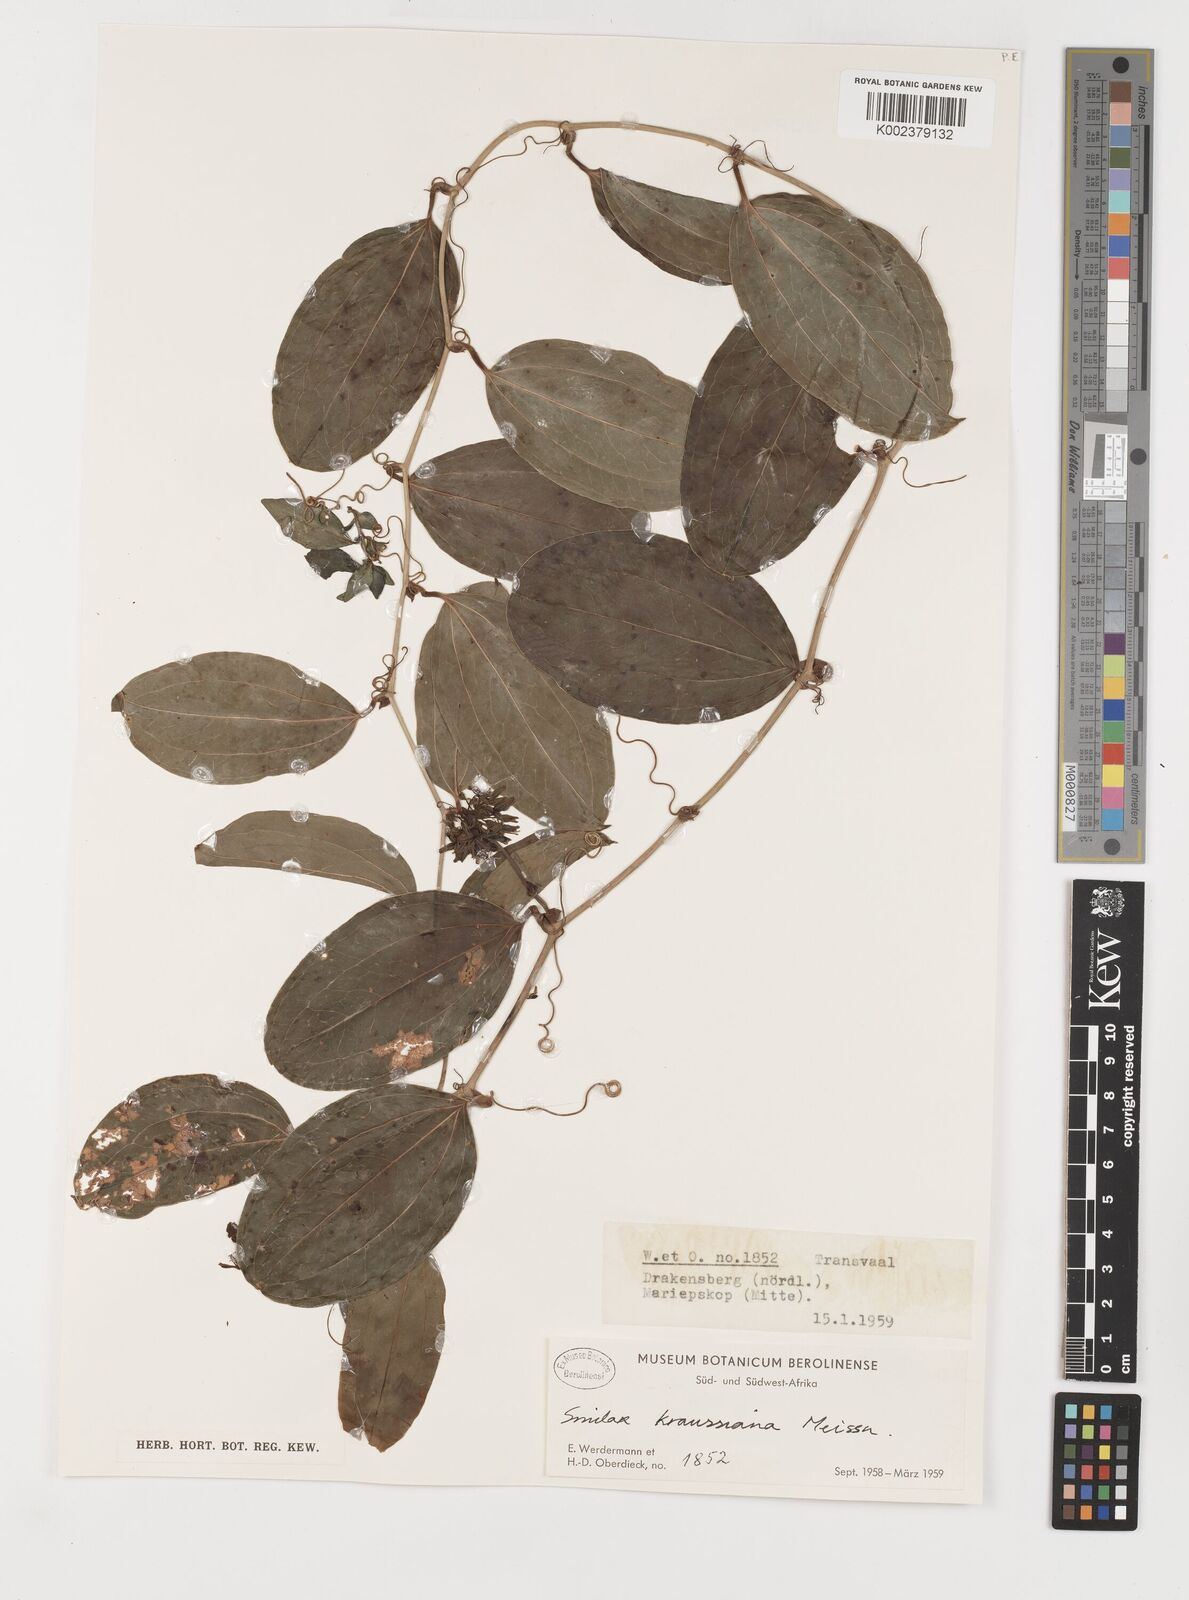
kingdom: Plantae
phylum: Tracheophyta
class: Liliopsida
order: Liliales
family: Smilacaceae
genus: Smilax
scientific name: Smilax anceps
